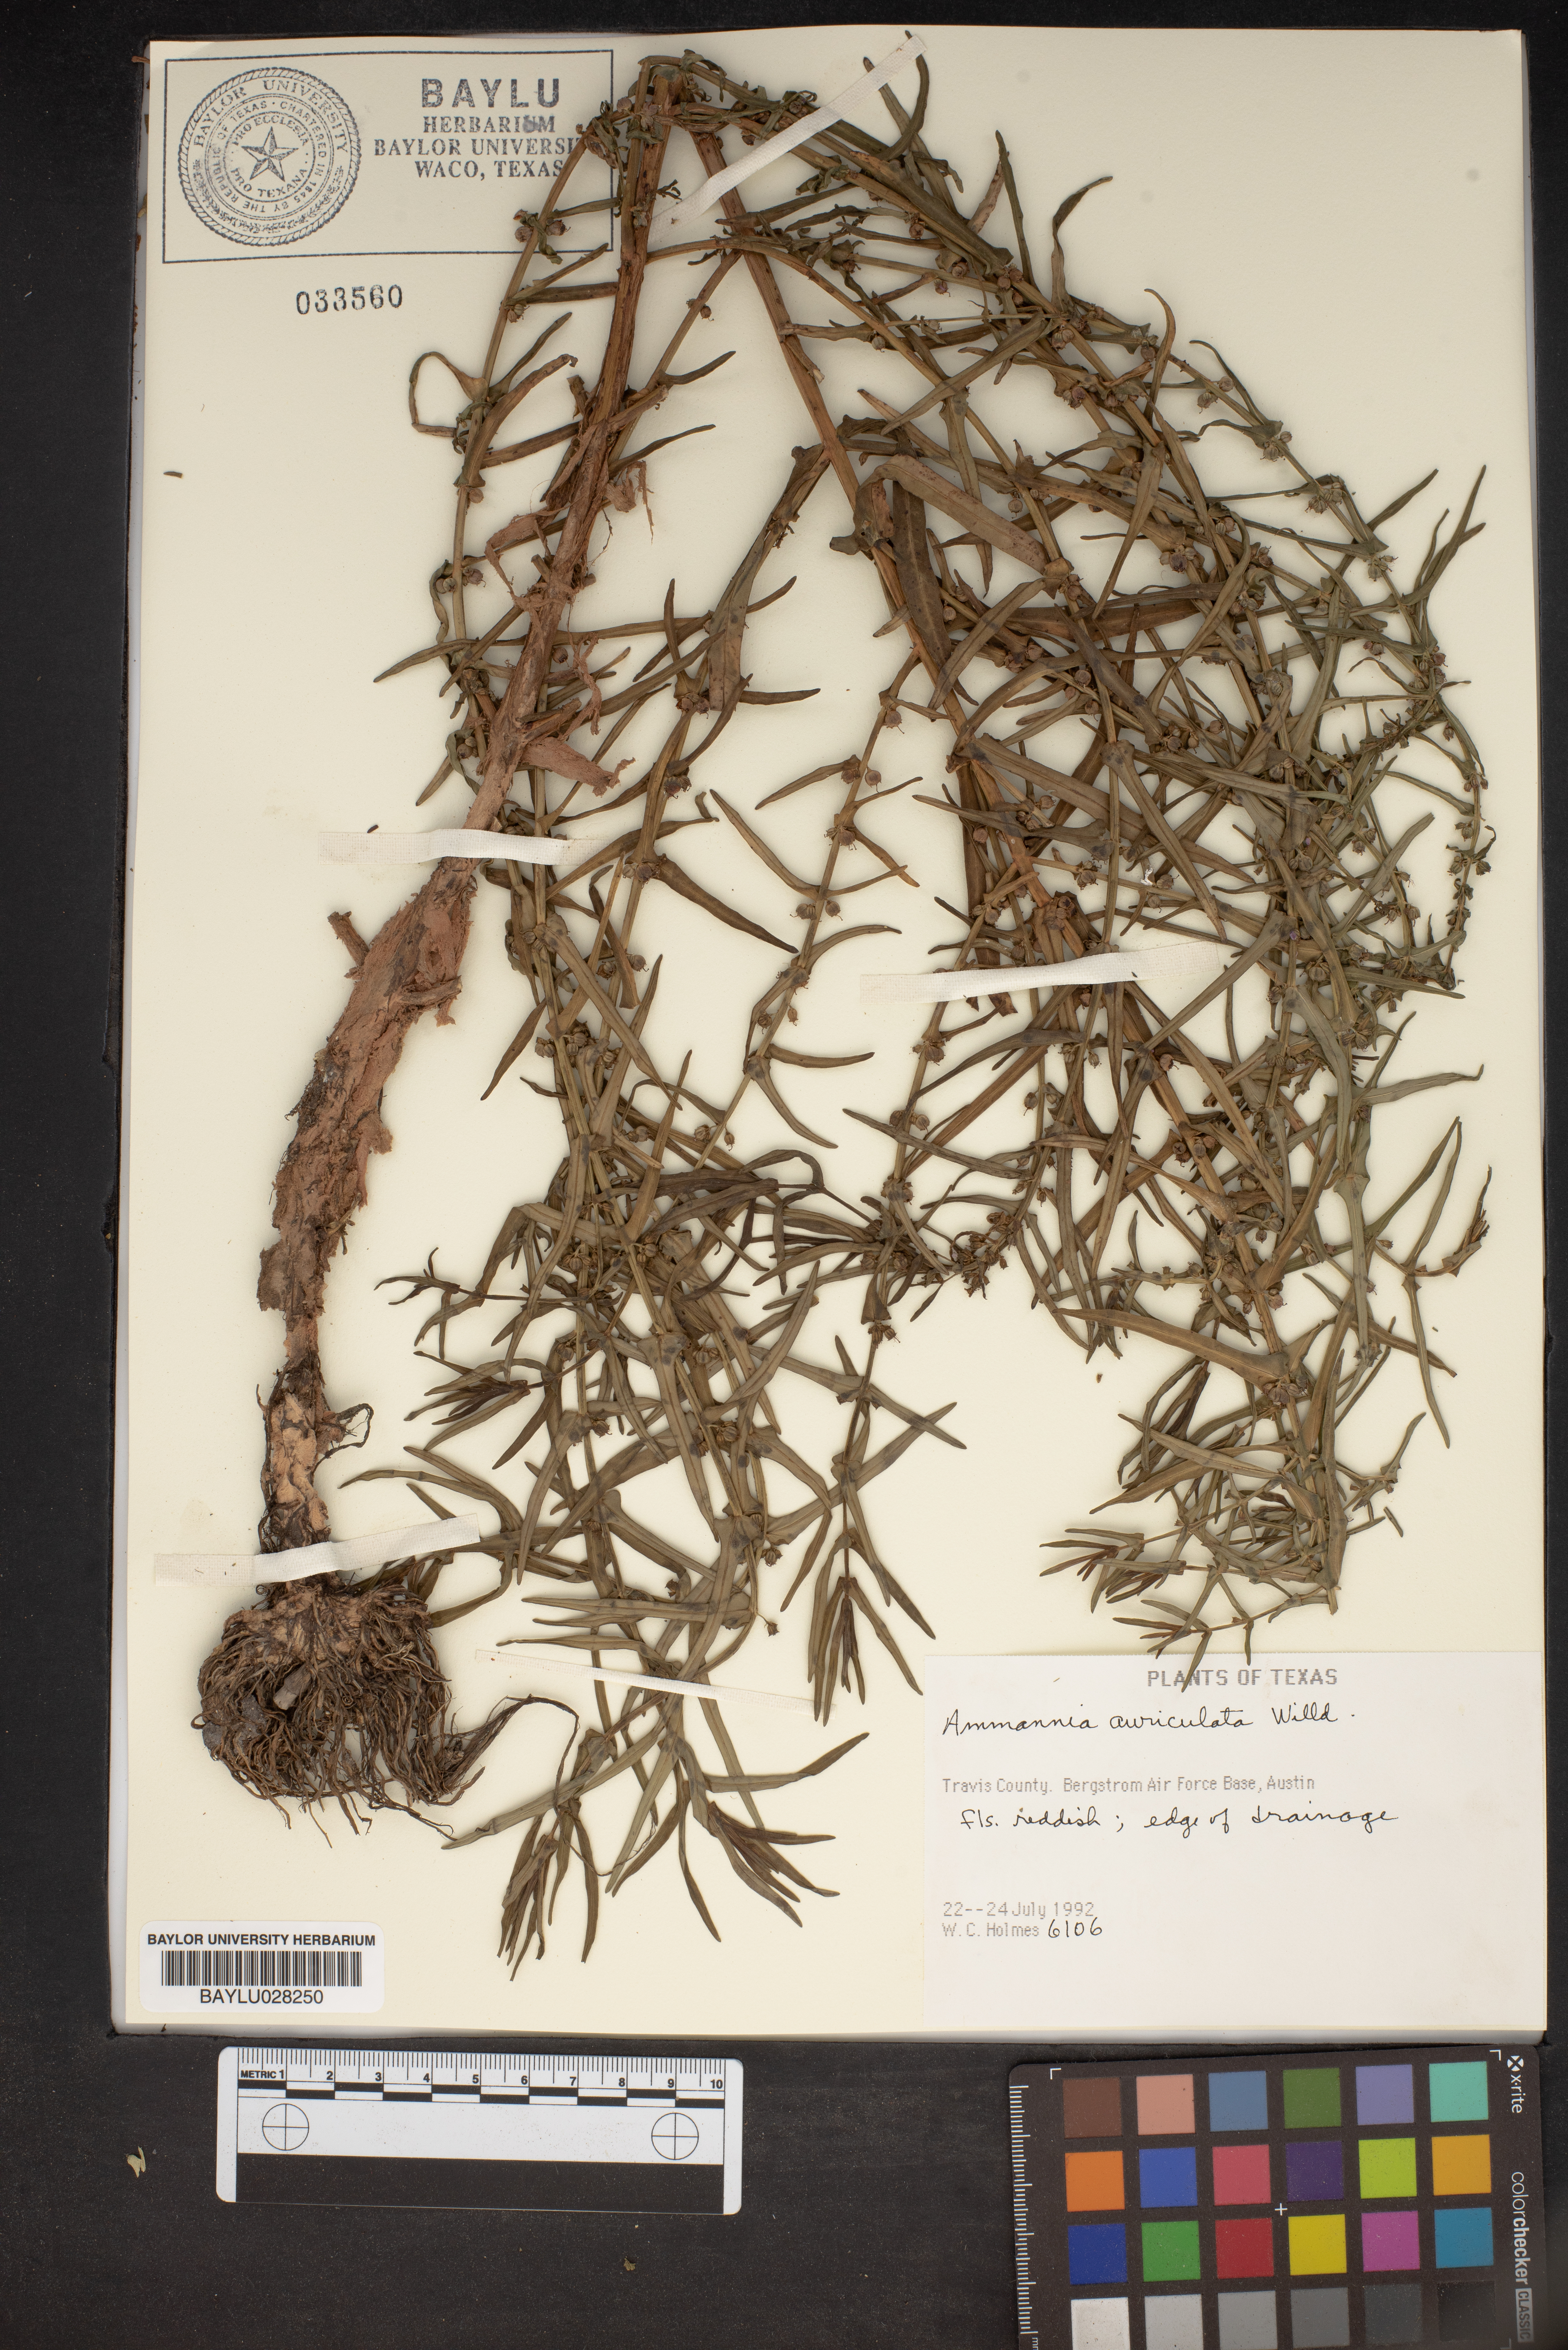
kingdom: Plantae
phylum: Tracheophyta
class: Magnoliopsida
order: Myrtales
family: Lythraceae
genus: Ammannia
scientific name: Ammannia auriculata
